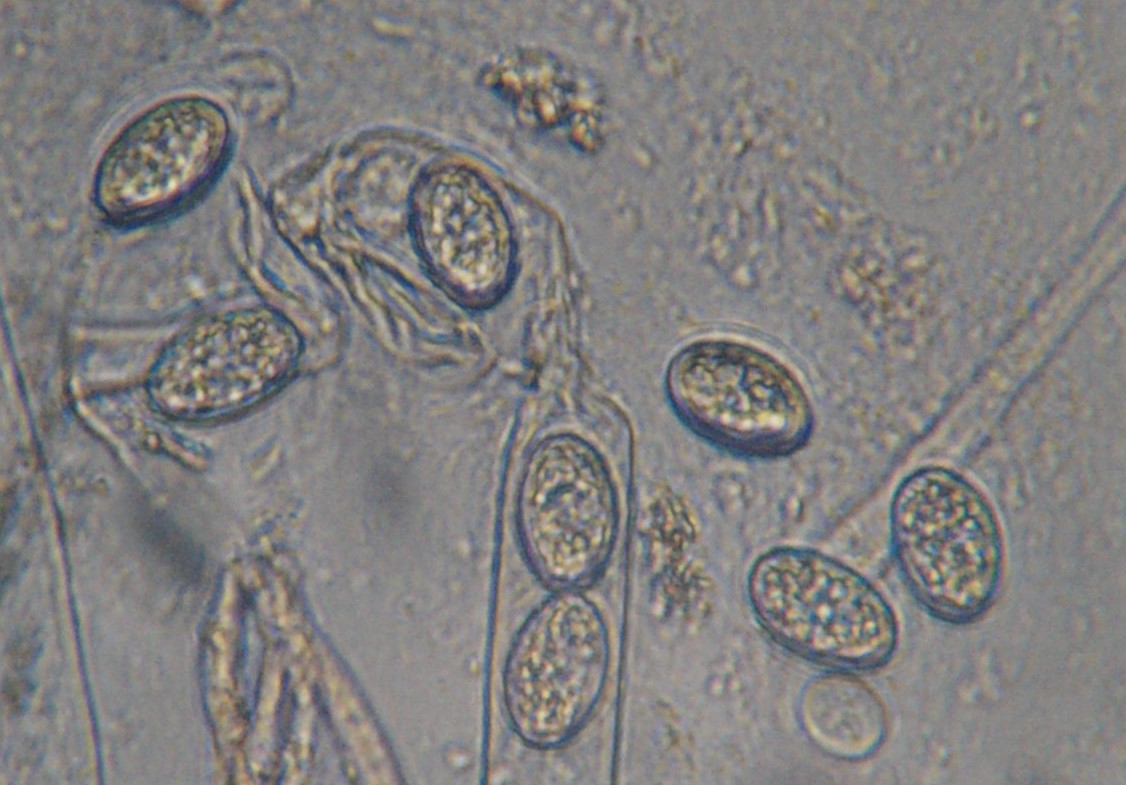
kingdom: Fungi
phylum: Ascomycota
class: Pezizomycetes
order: Pezizales
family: Pyronemataceae
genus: Scutellinia
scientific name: Scutellinia
